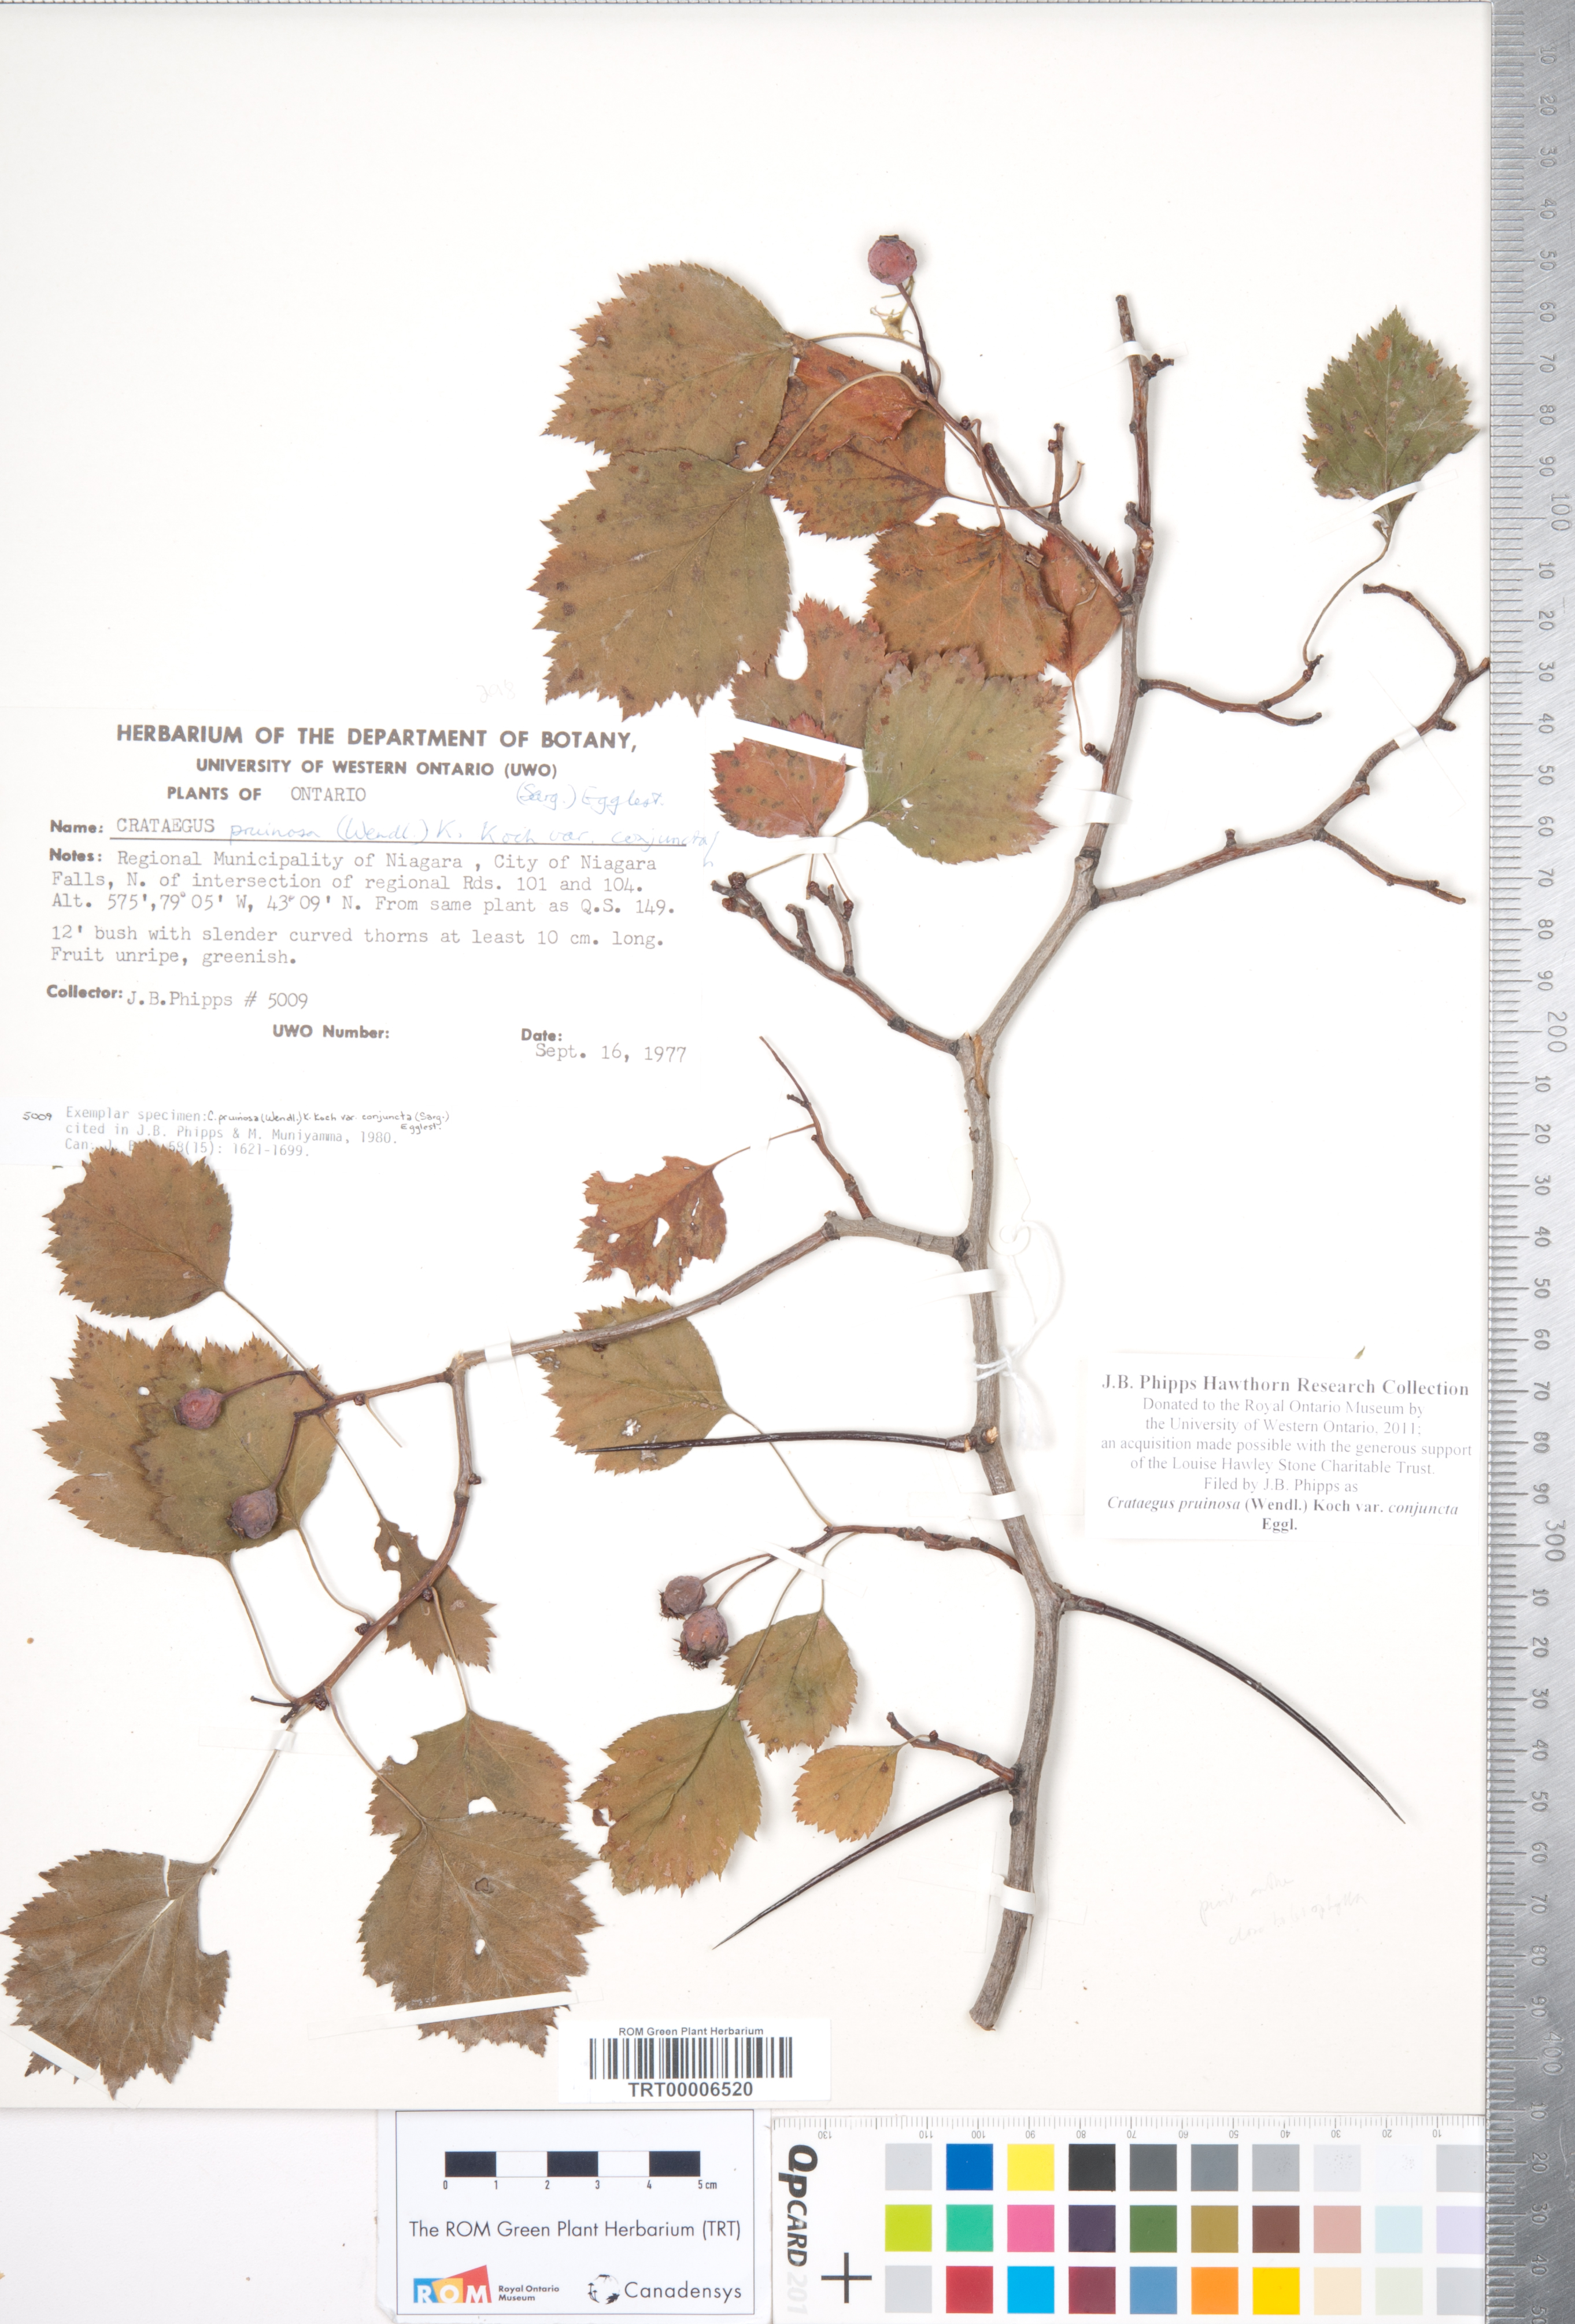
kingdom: Plantae
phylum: Tracheophyta
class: Magnoliopsida
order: Rosales
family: Rosaceae
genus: Crataegus
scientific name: Crataegus pruinosa
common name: Waxy-fruit hawthorn
